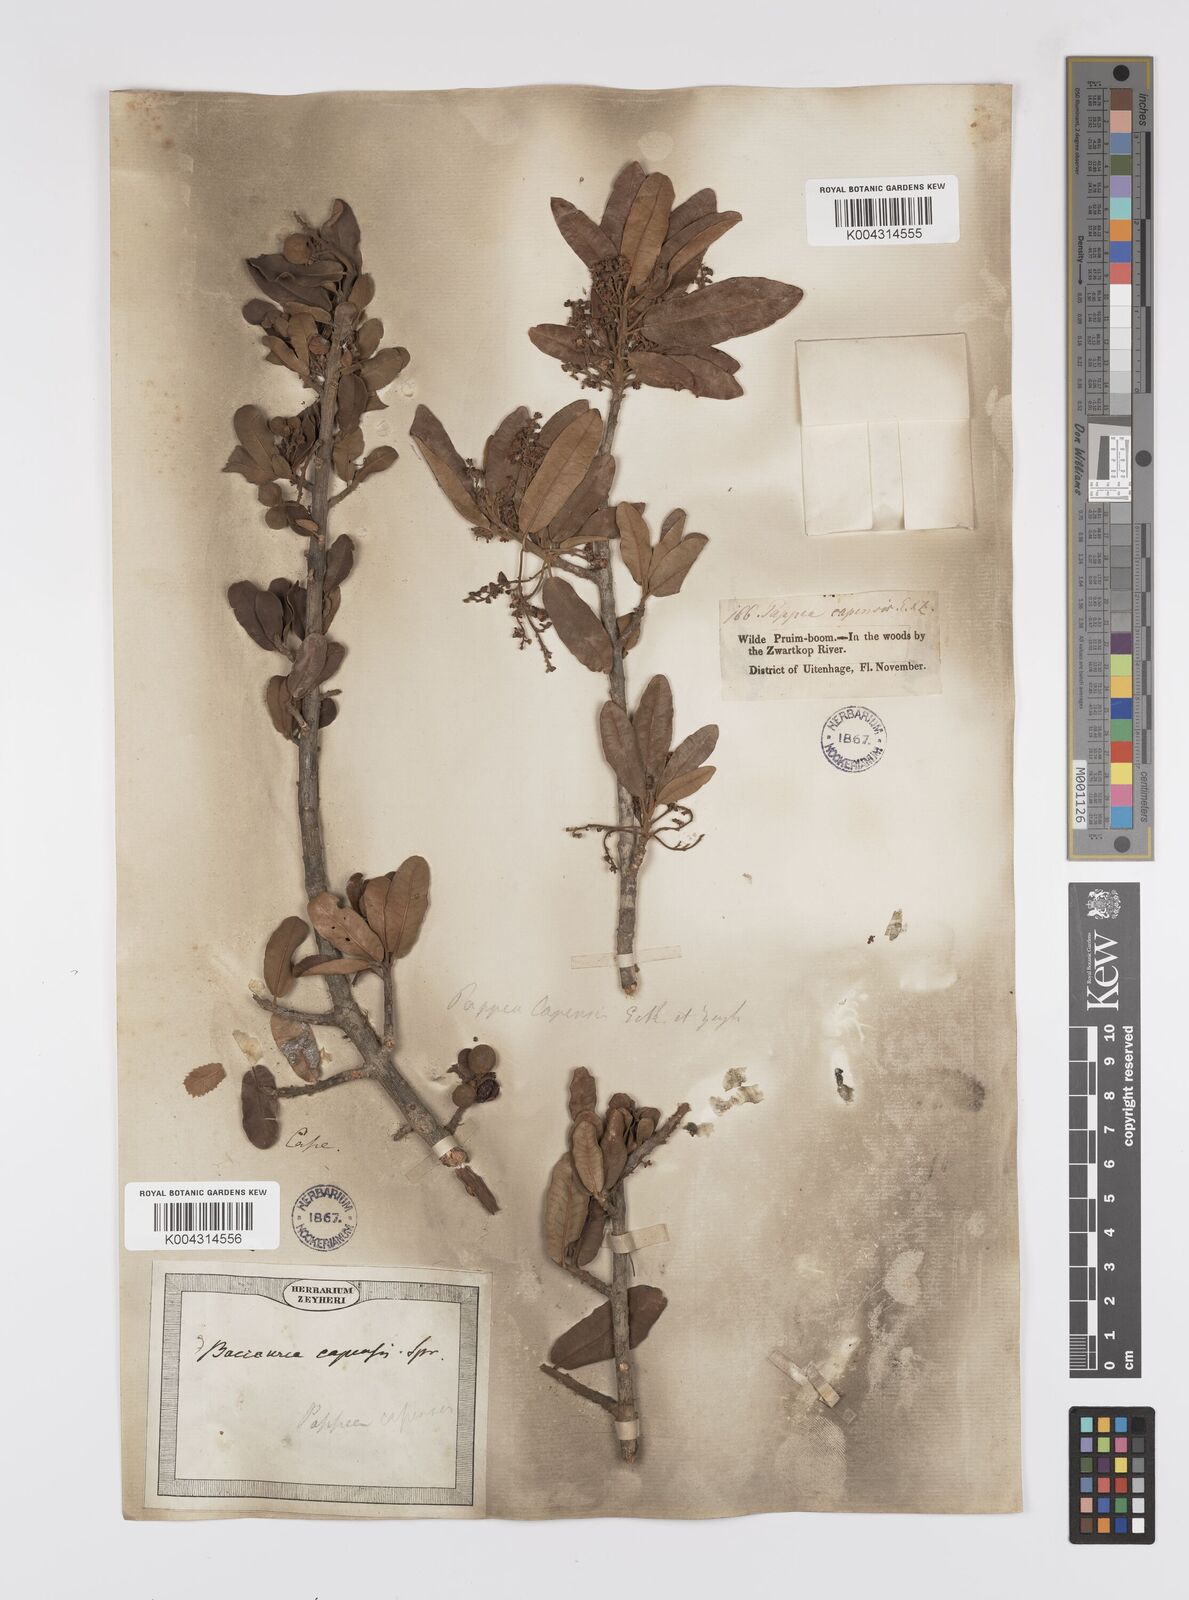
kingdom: Plantae
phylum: Tracheophyta
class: Magnoliopsida
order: Sapindales
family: Sapindaceae
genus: Pappea
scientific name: Pappea capensis
